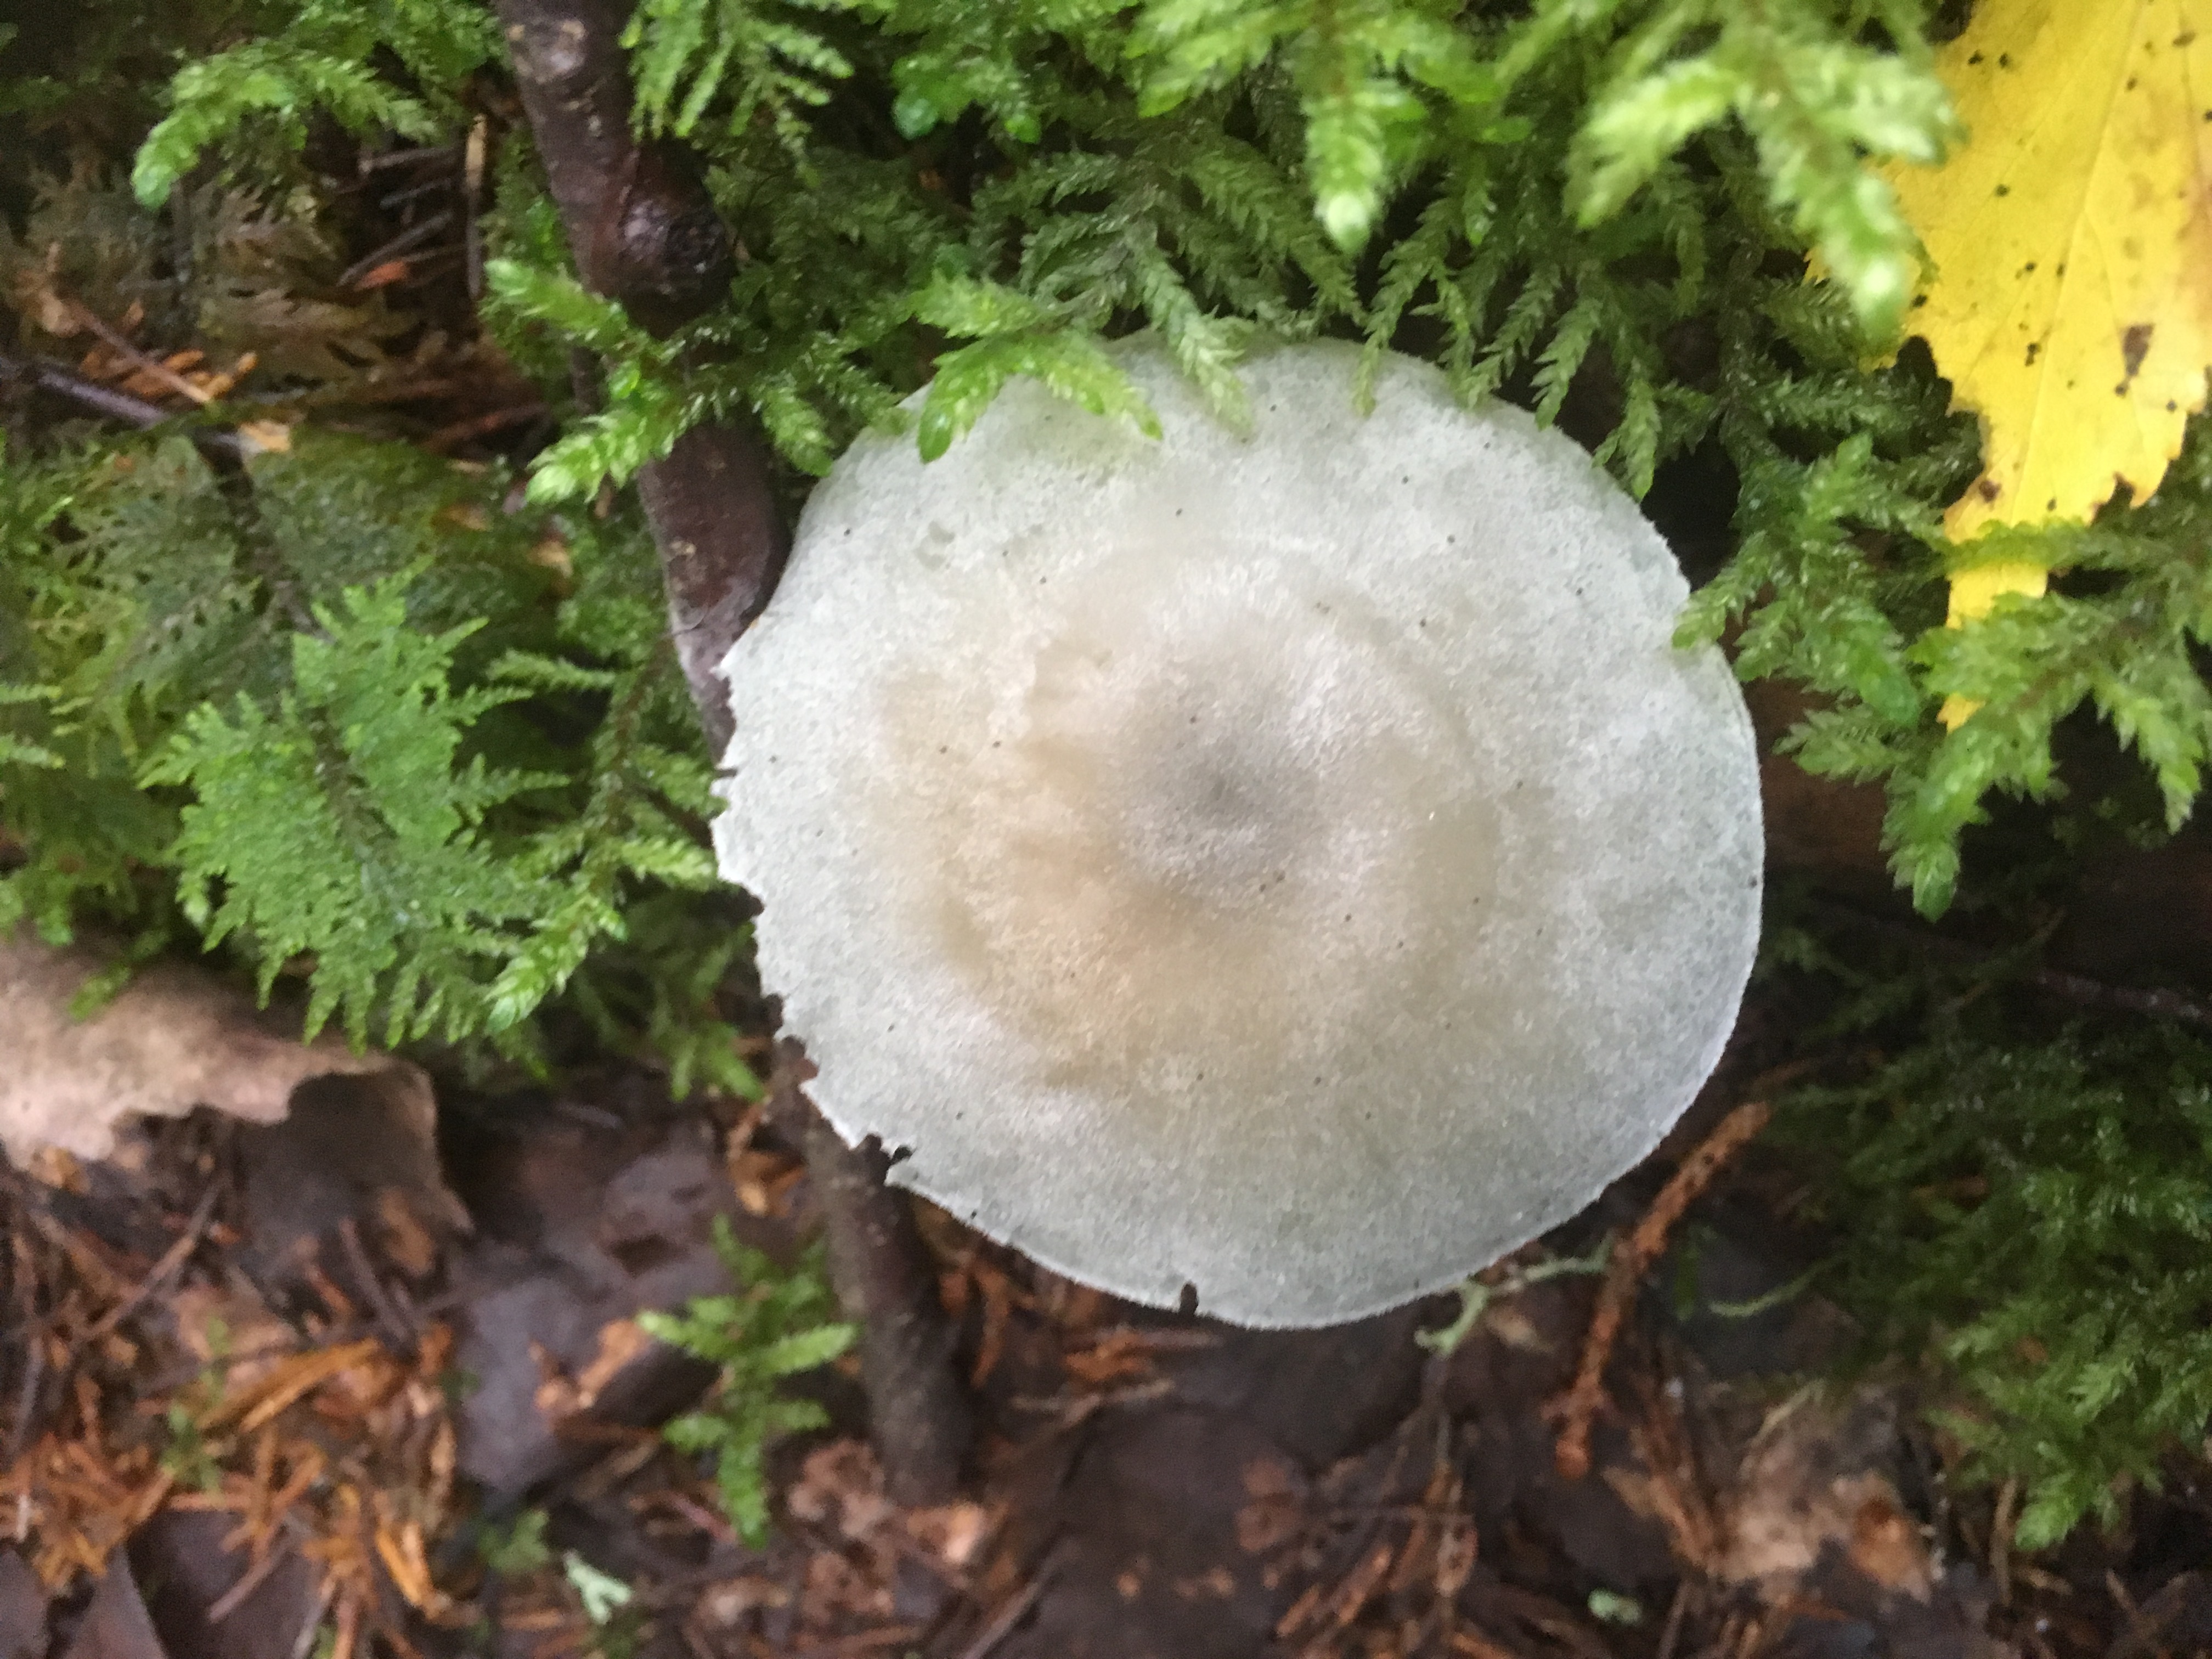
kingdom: Fungi
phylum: Basidiomycota
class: Agaricomycetes
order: Agaricales
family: Tricholomataceae
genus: Clitocybe
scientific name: Clitocybe odora
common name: Aniseed funnel
